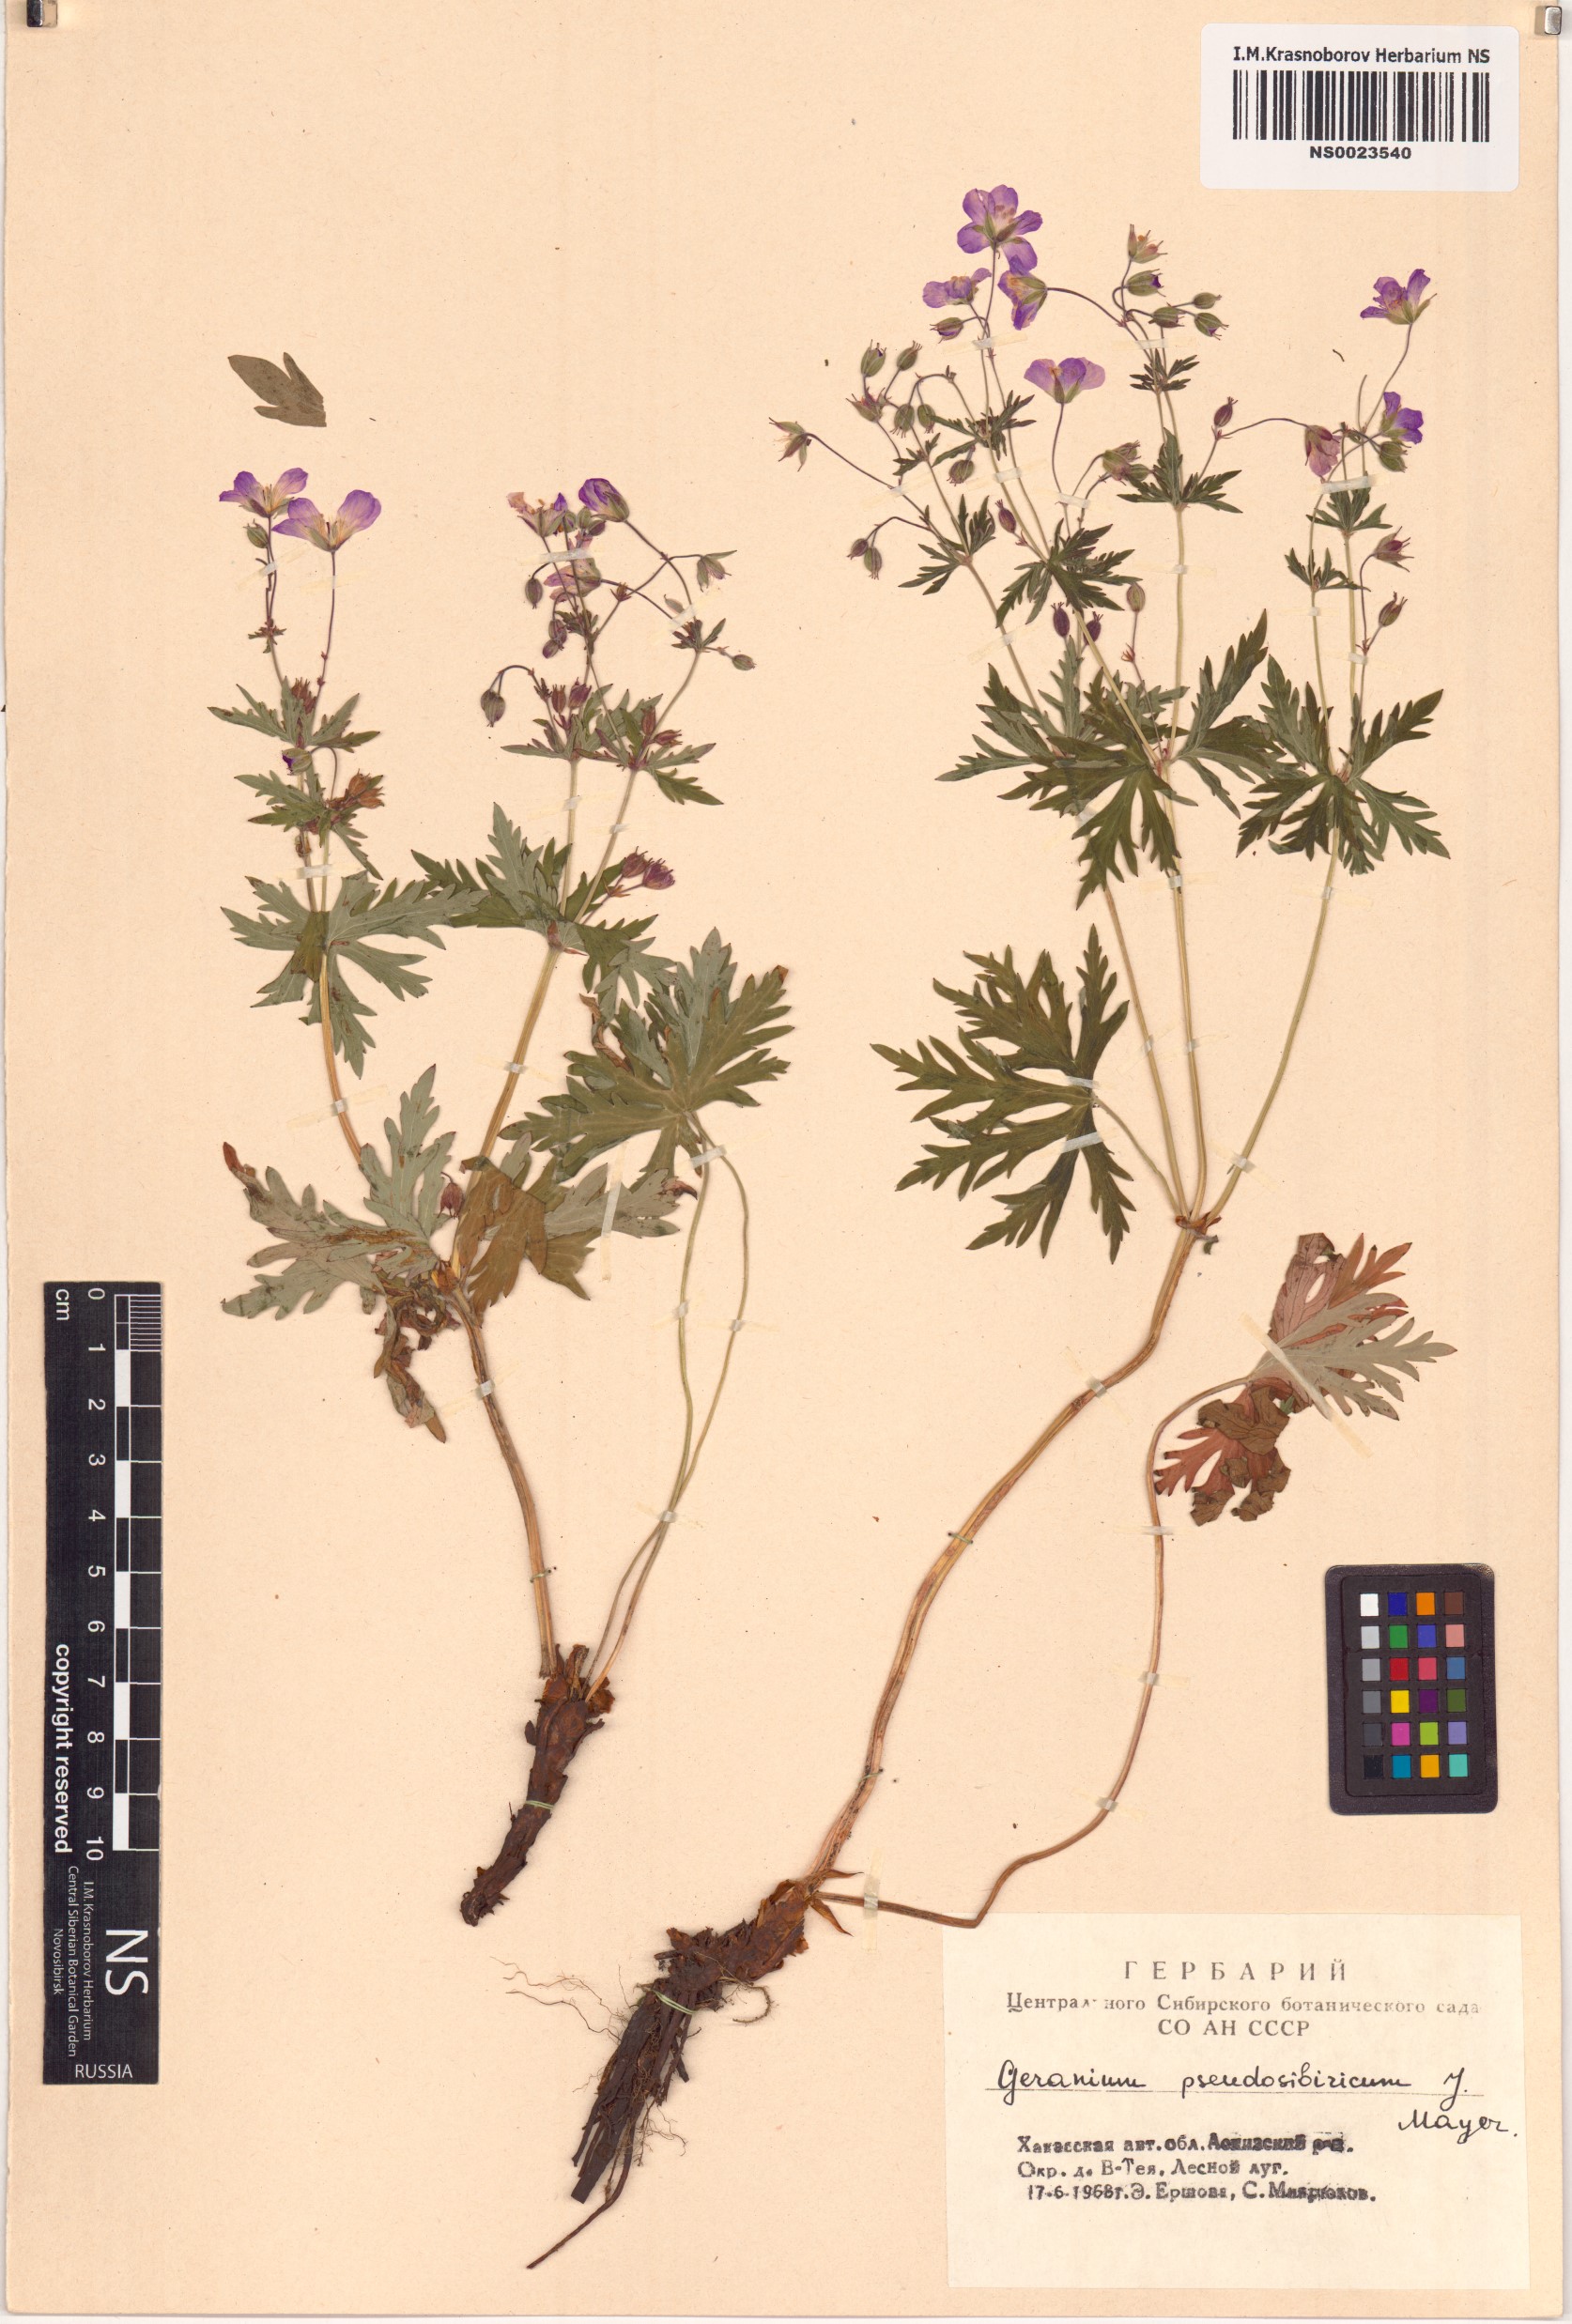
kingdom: Plantae
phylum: Tracheophyta
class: Magnoliopsida
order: Geraniales
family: Geraniaceae
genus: Geranium
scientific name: Geranium pseudosibiricum
